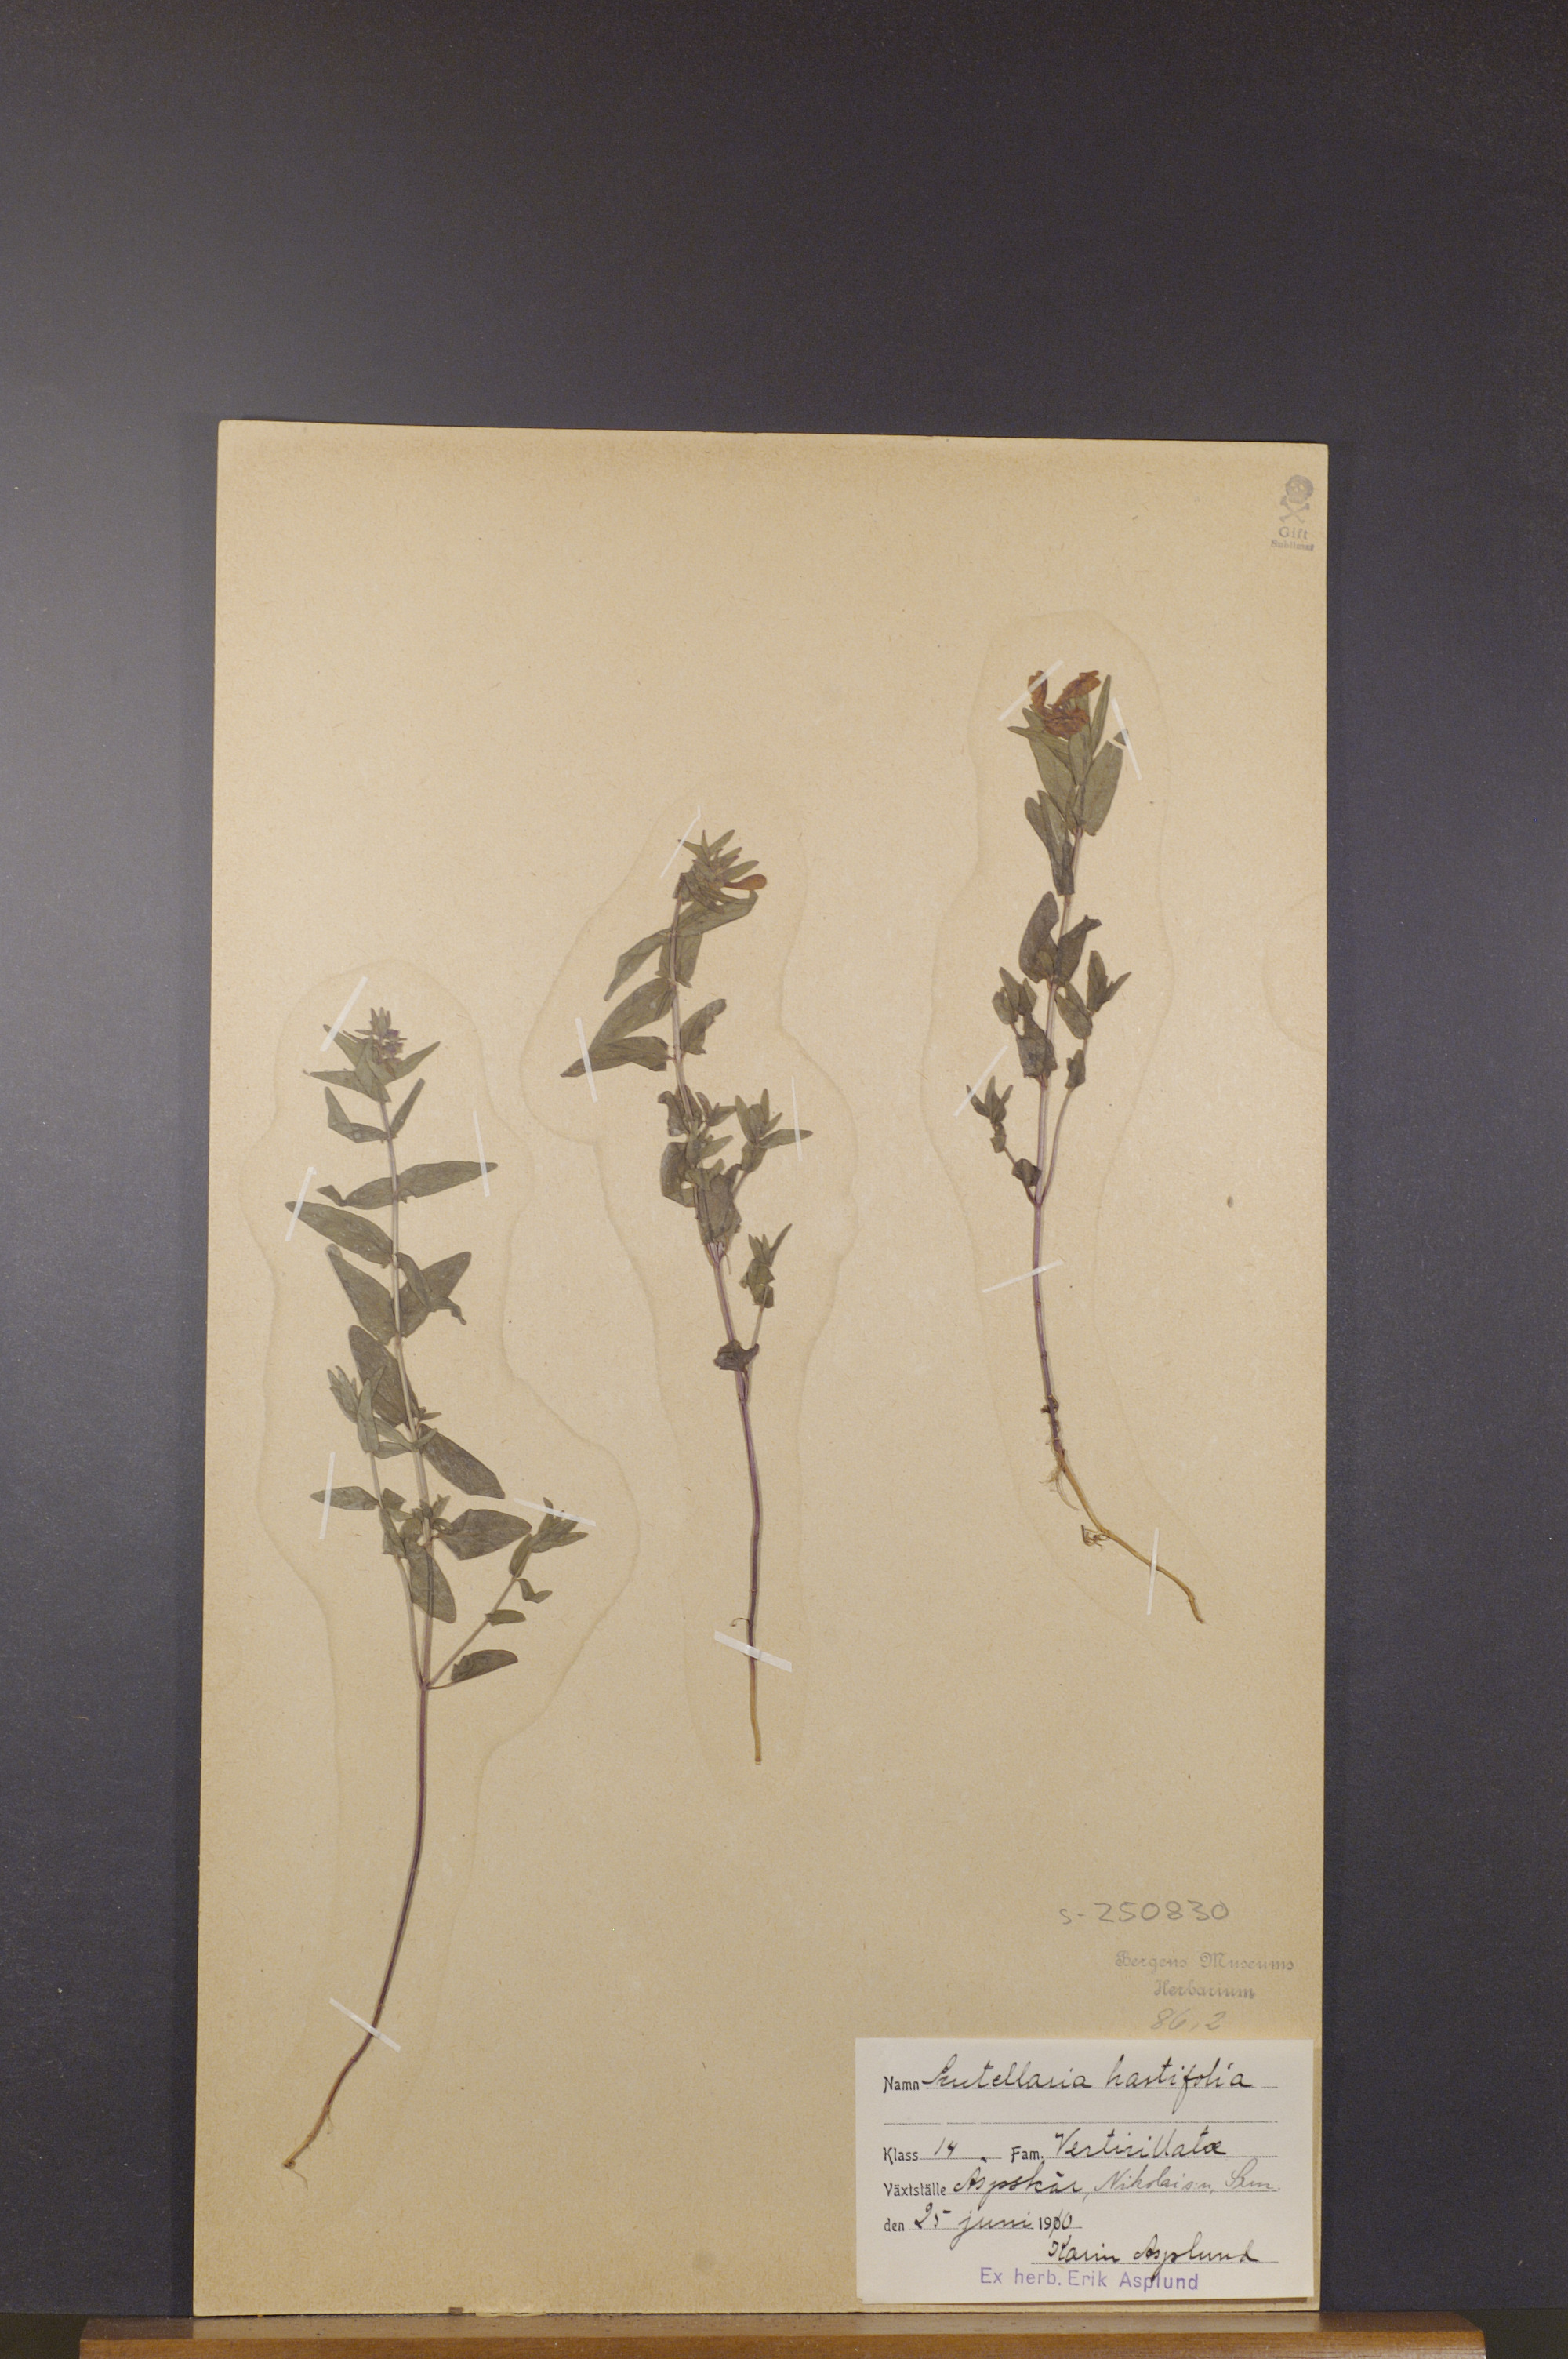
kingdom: Plantae
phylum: Tracheophyta
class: Magnoliopsida
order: Lamiales
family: Lamiaceae
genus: Scutellaria
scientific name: Scutellaria hastifolia
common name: Norfolk skullcap
